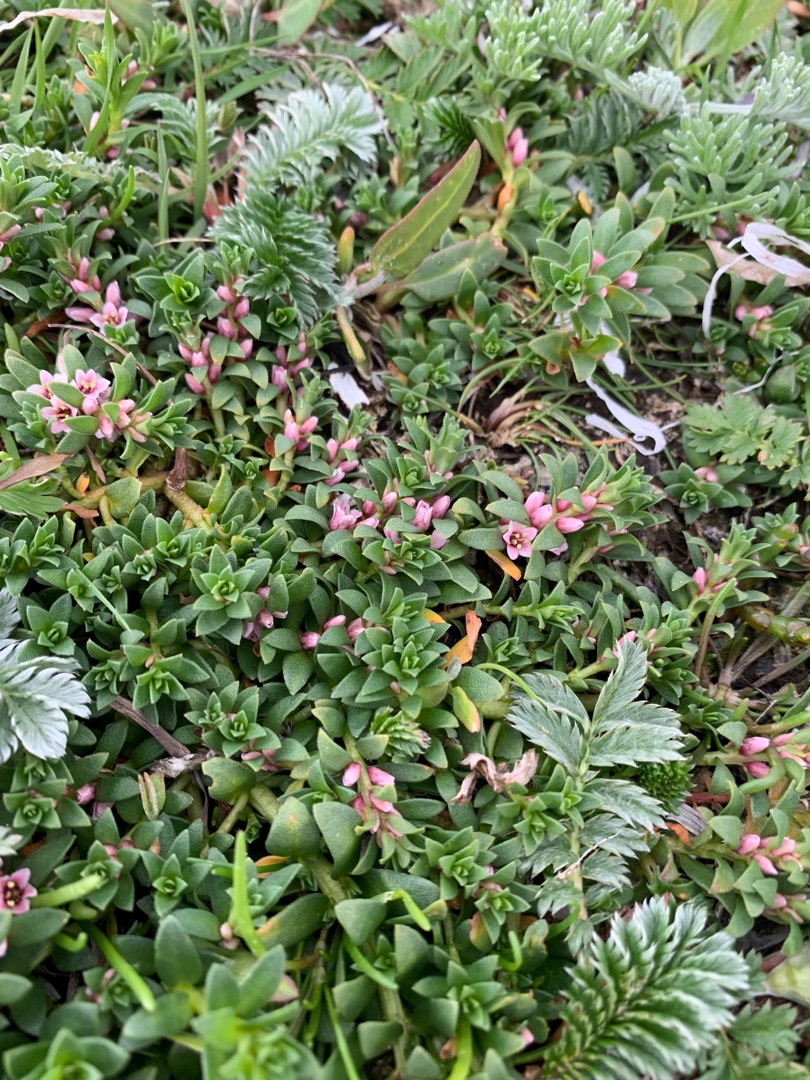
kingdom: Plantae
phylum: Tracheophyta
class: Magnoliopsida
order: Ericales
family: Primulaceae
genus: Lysimachia
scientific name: Lysimachia maritima
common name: Sandkryb
